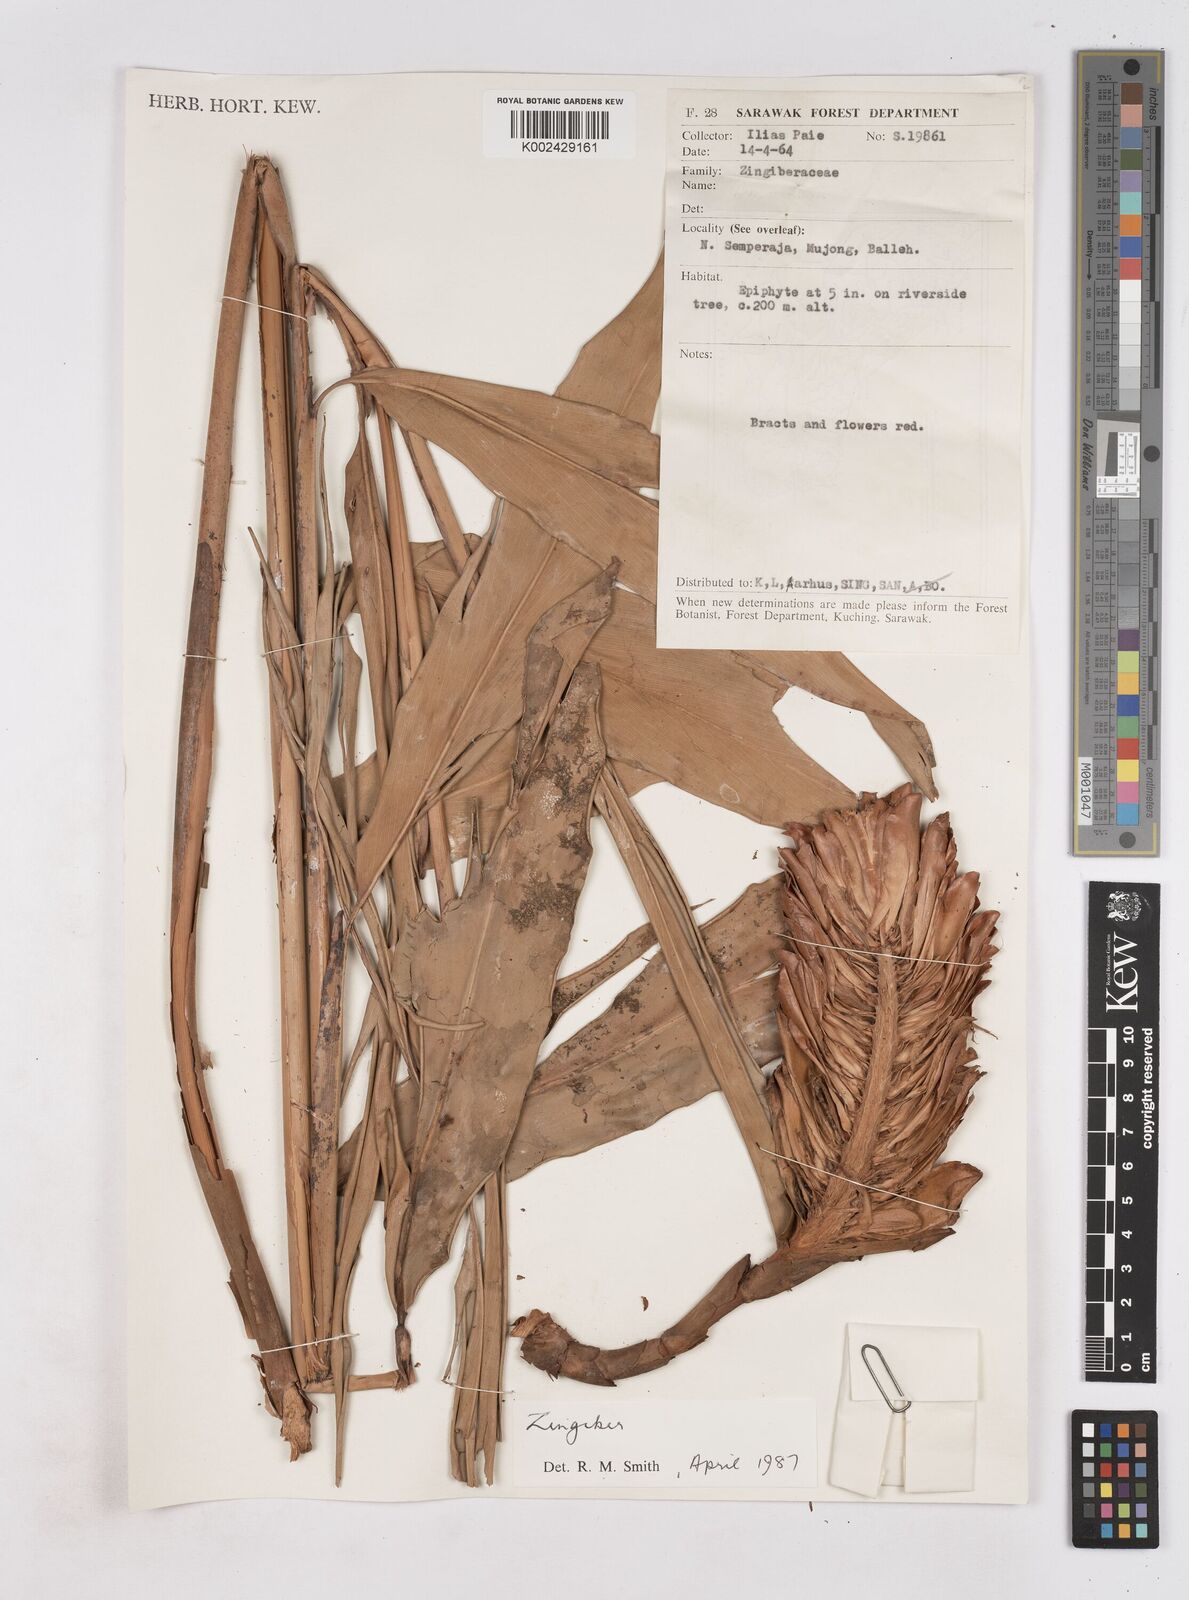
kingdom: Plantae
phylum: Tracheophyta
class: Liliopsida
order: Zingiberales
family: Zingiberaceae
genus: Zingiber
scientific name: Zingiber
